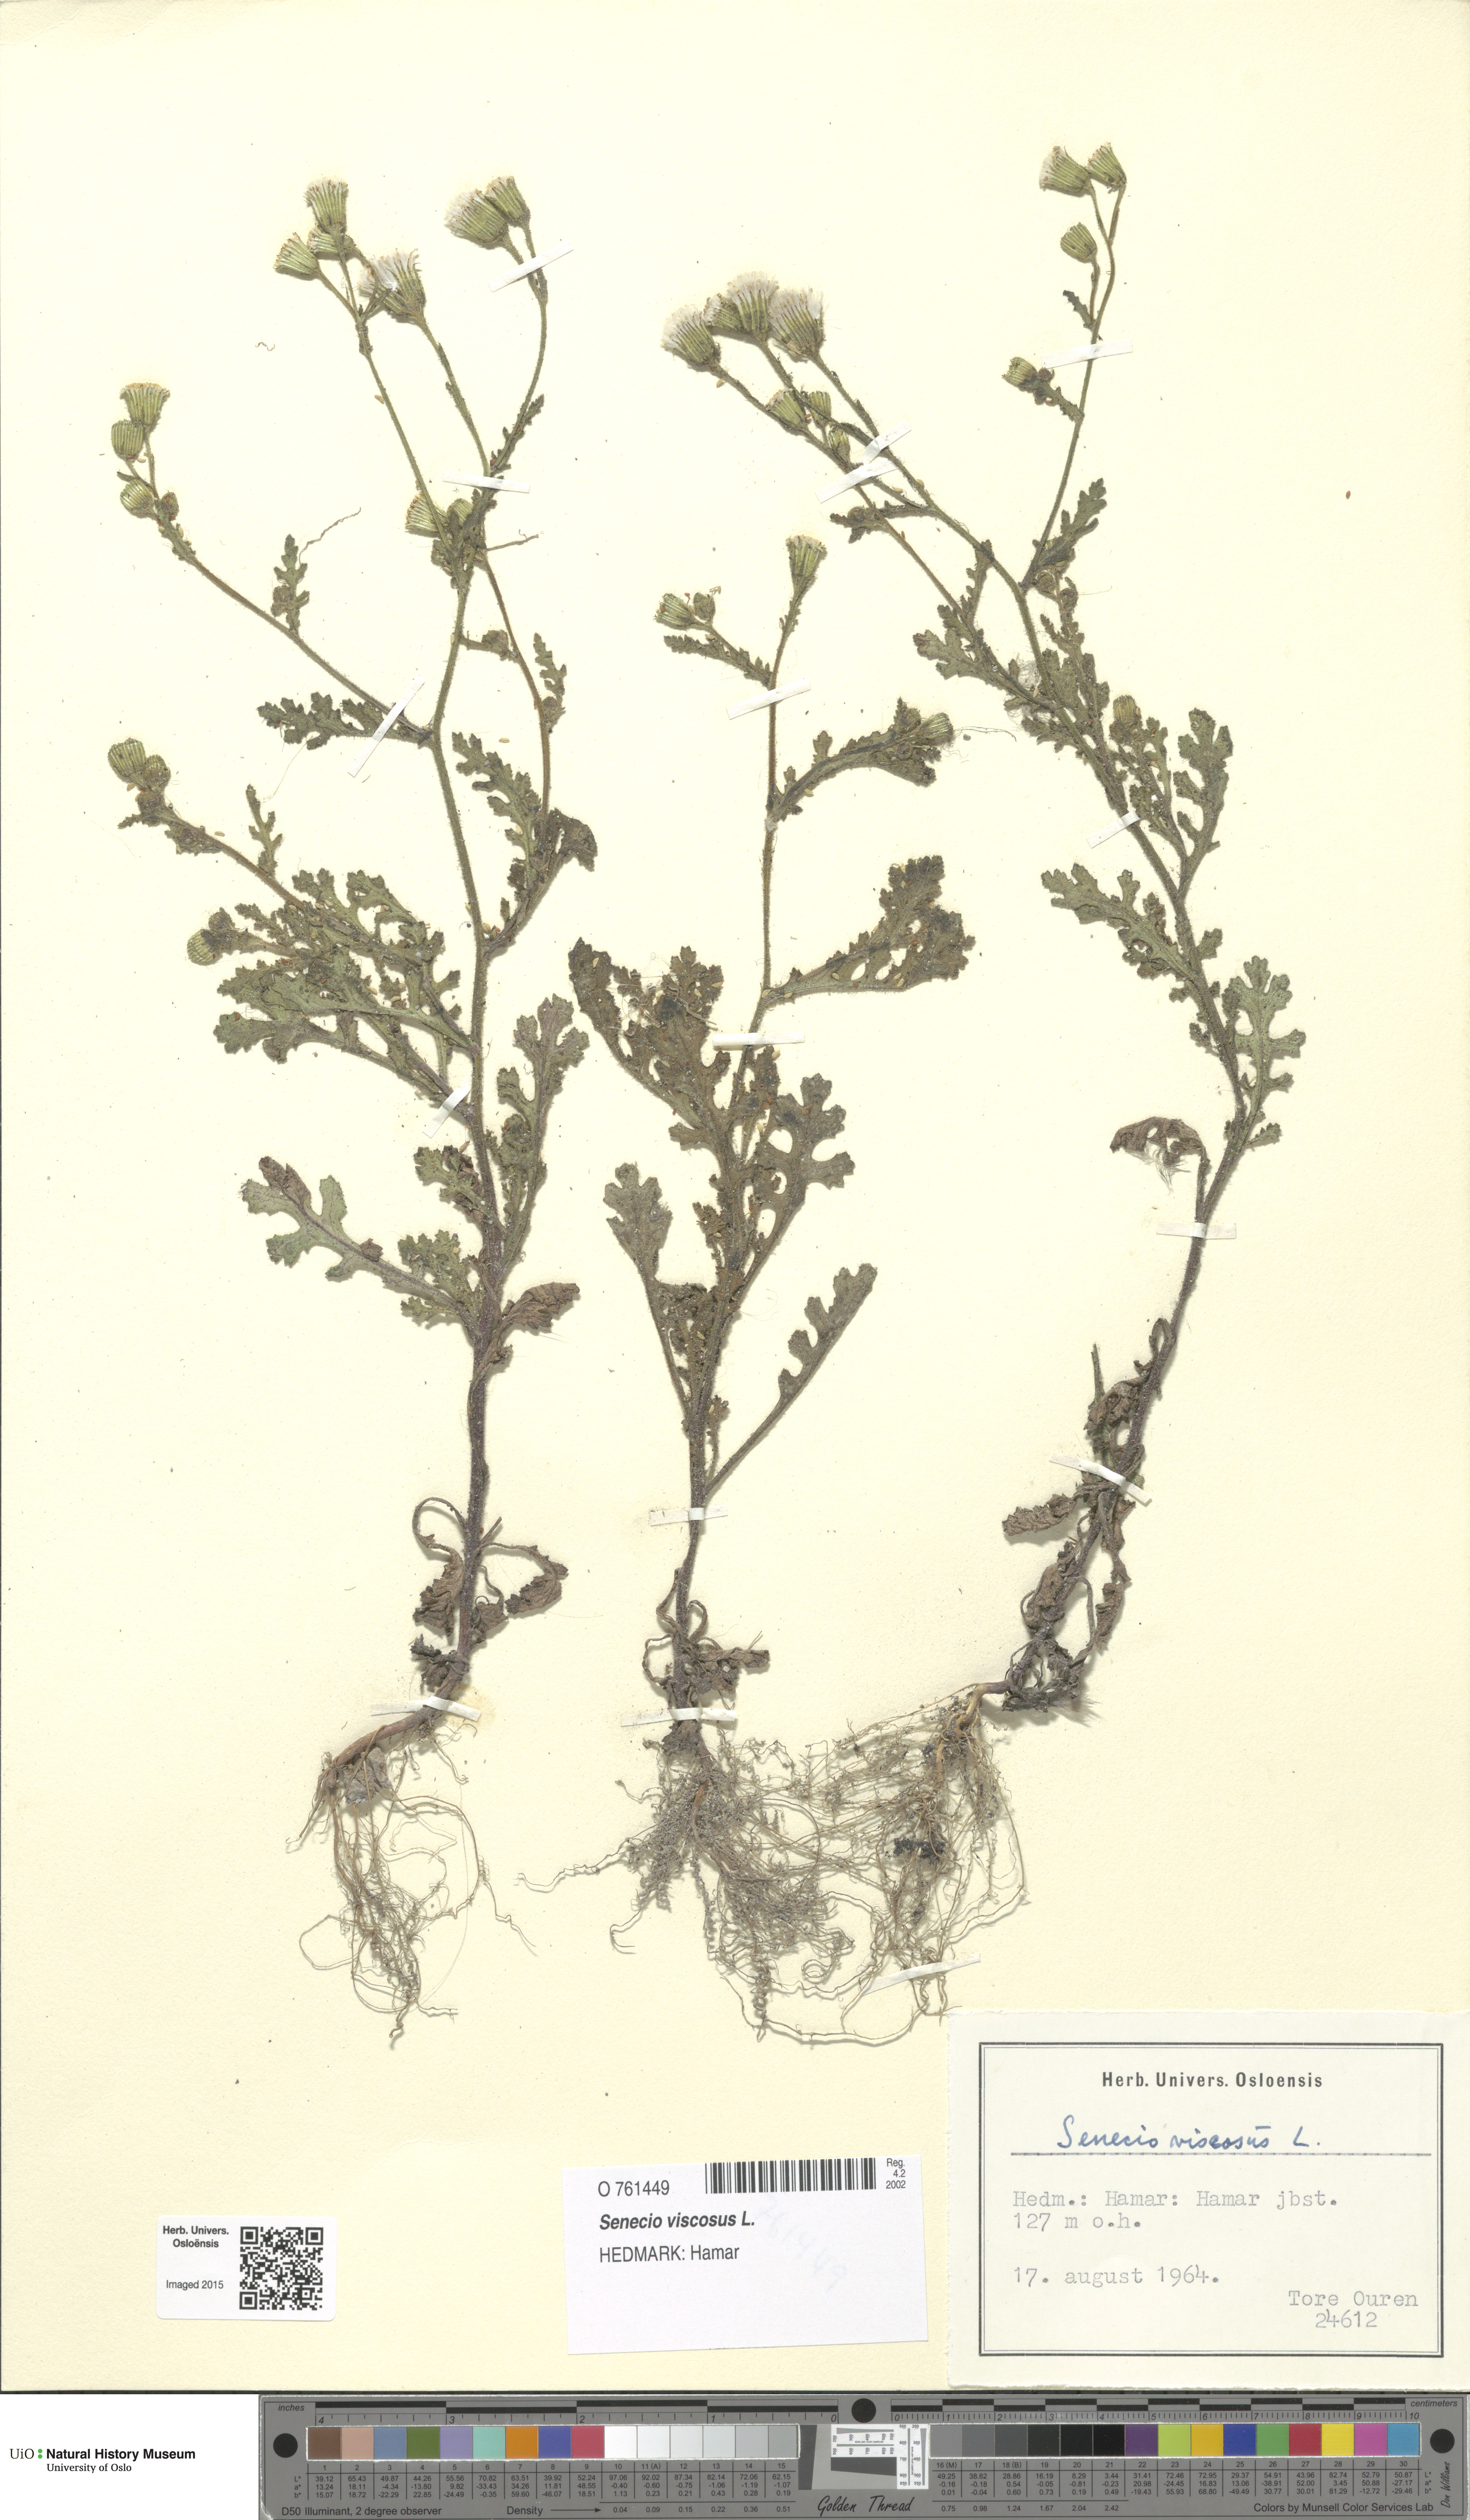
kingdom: Plantae
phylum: Tracheophyta
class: Magnoliopsida
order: Asterales
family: Asteraceae
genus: Senecio
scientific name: Senecio viscosus
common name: Sticky groundsel
